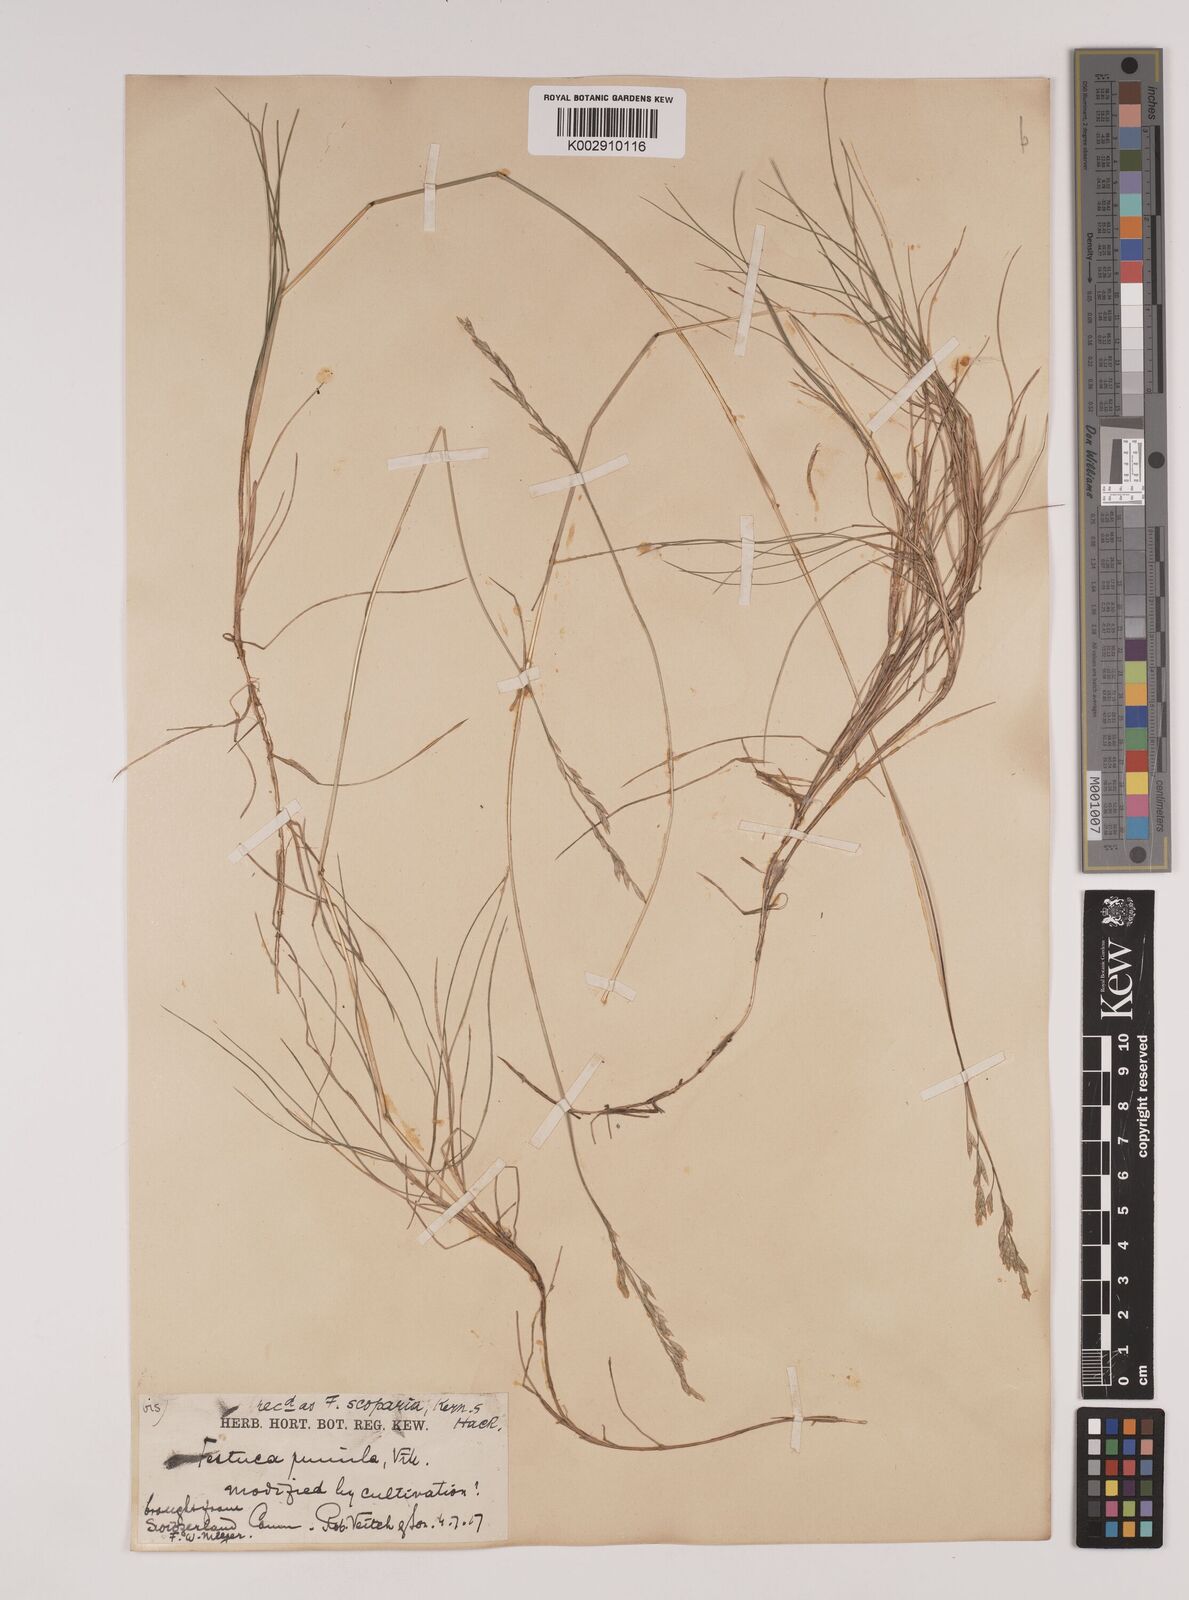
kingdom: Plantae
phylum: Tracheophyta
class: Liliopsida
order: Poales
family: Poaceae
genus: Festuca
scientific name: Festuca
